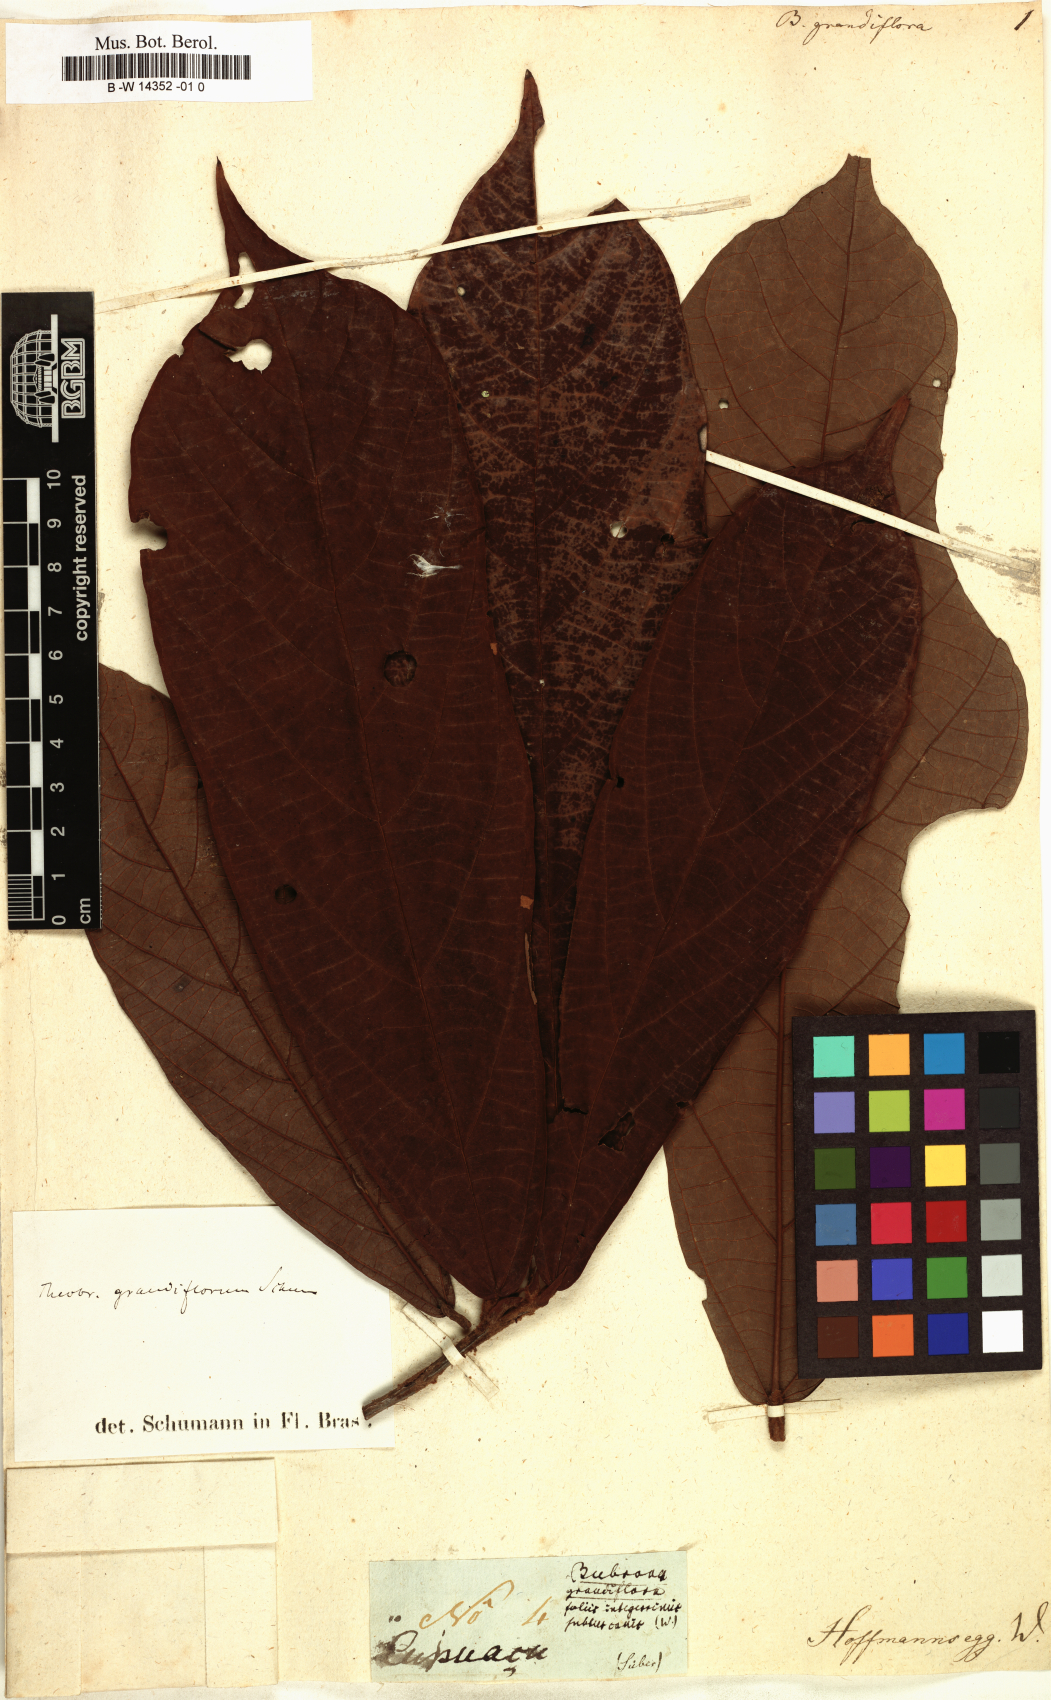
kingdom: Plantae
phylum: Tracheophyta
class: Magnoliopsida
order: Malvales
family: Malvaceae
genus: Theobroma
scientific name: Theobroma grandiflorum
